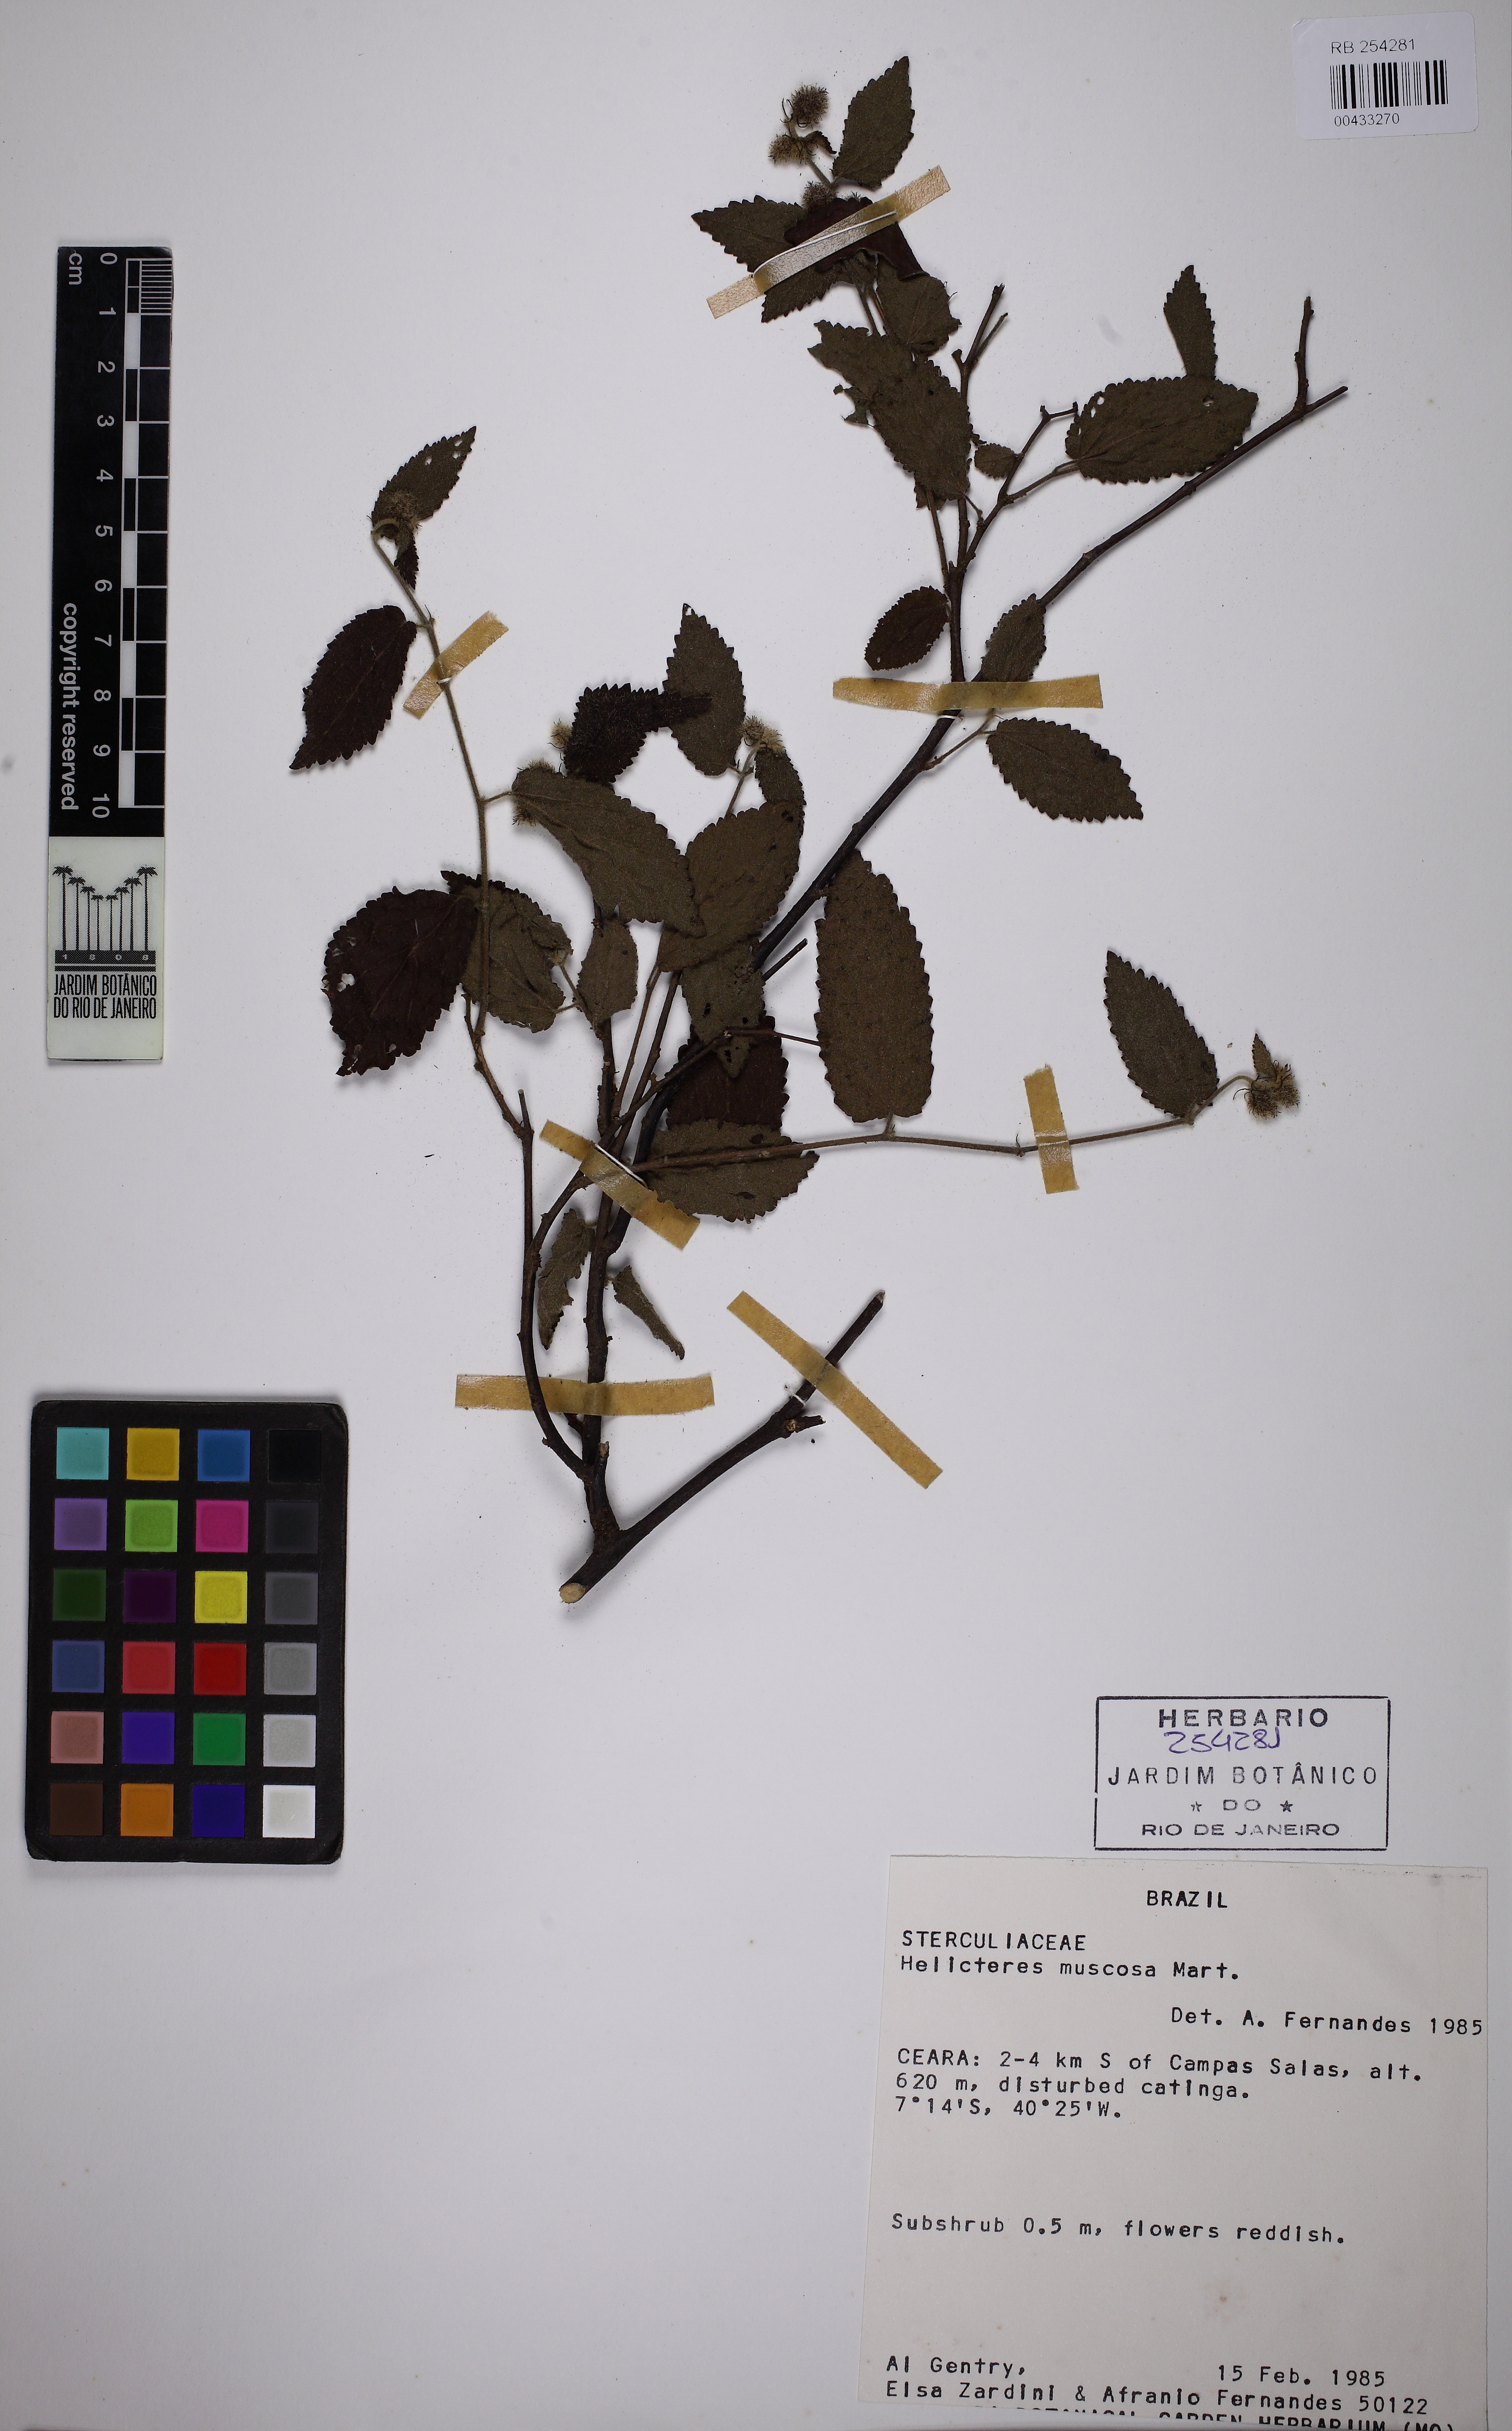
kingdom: Plantae
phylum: Tracheophyta
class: Magnoliopsida
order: Malvales
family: Malvaceae
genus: Helicteres
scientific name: Helicteres muscosa
